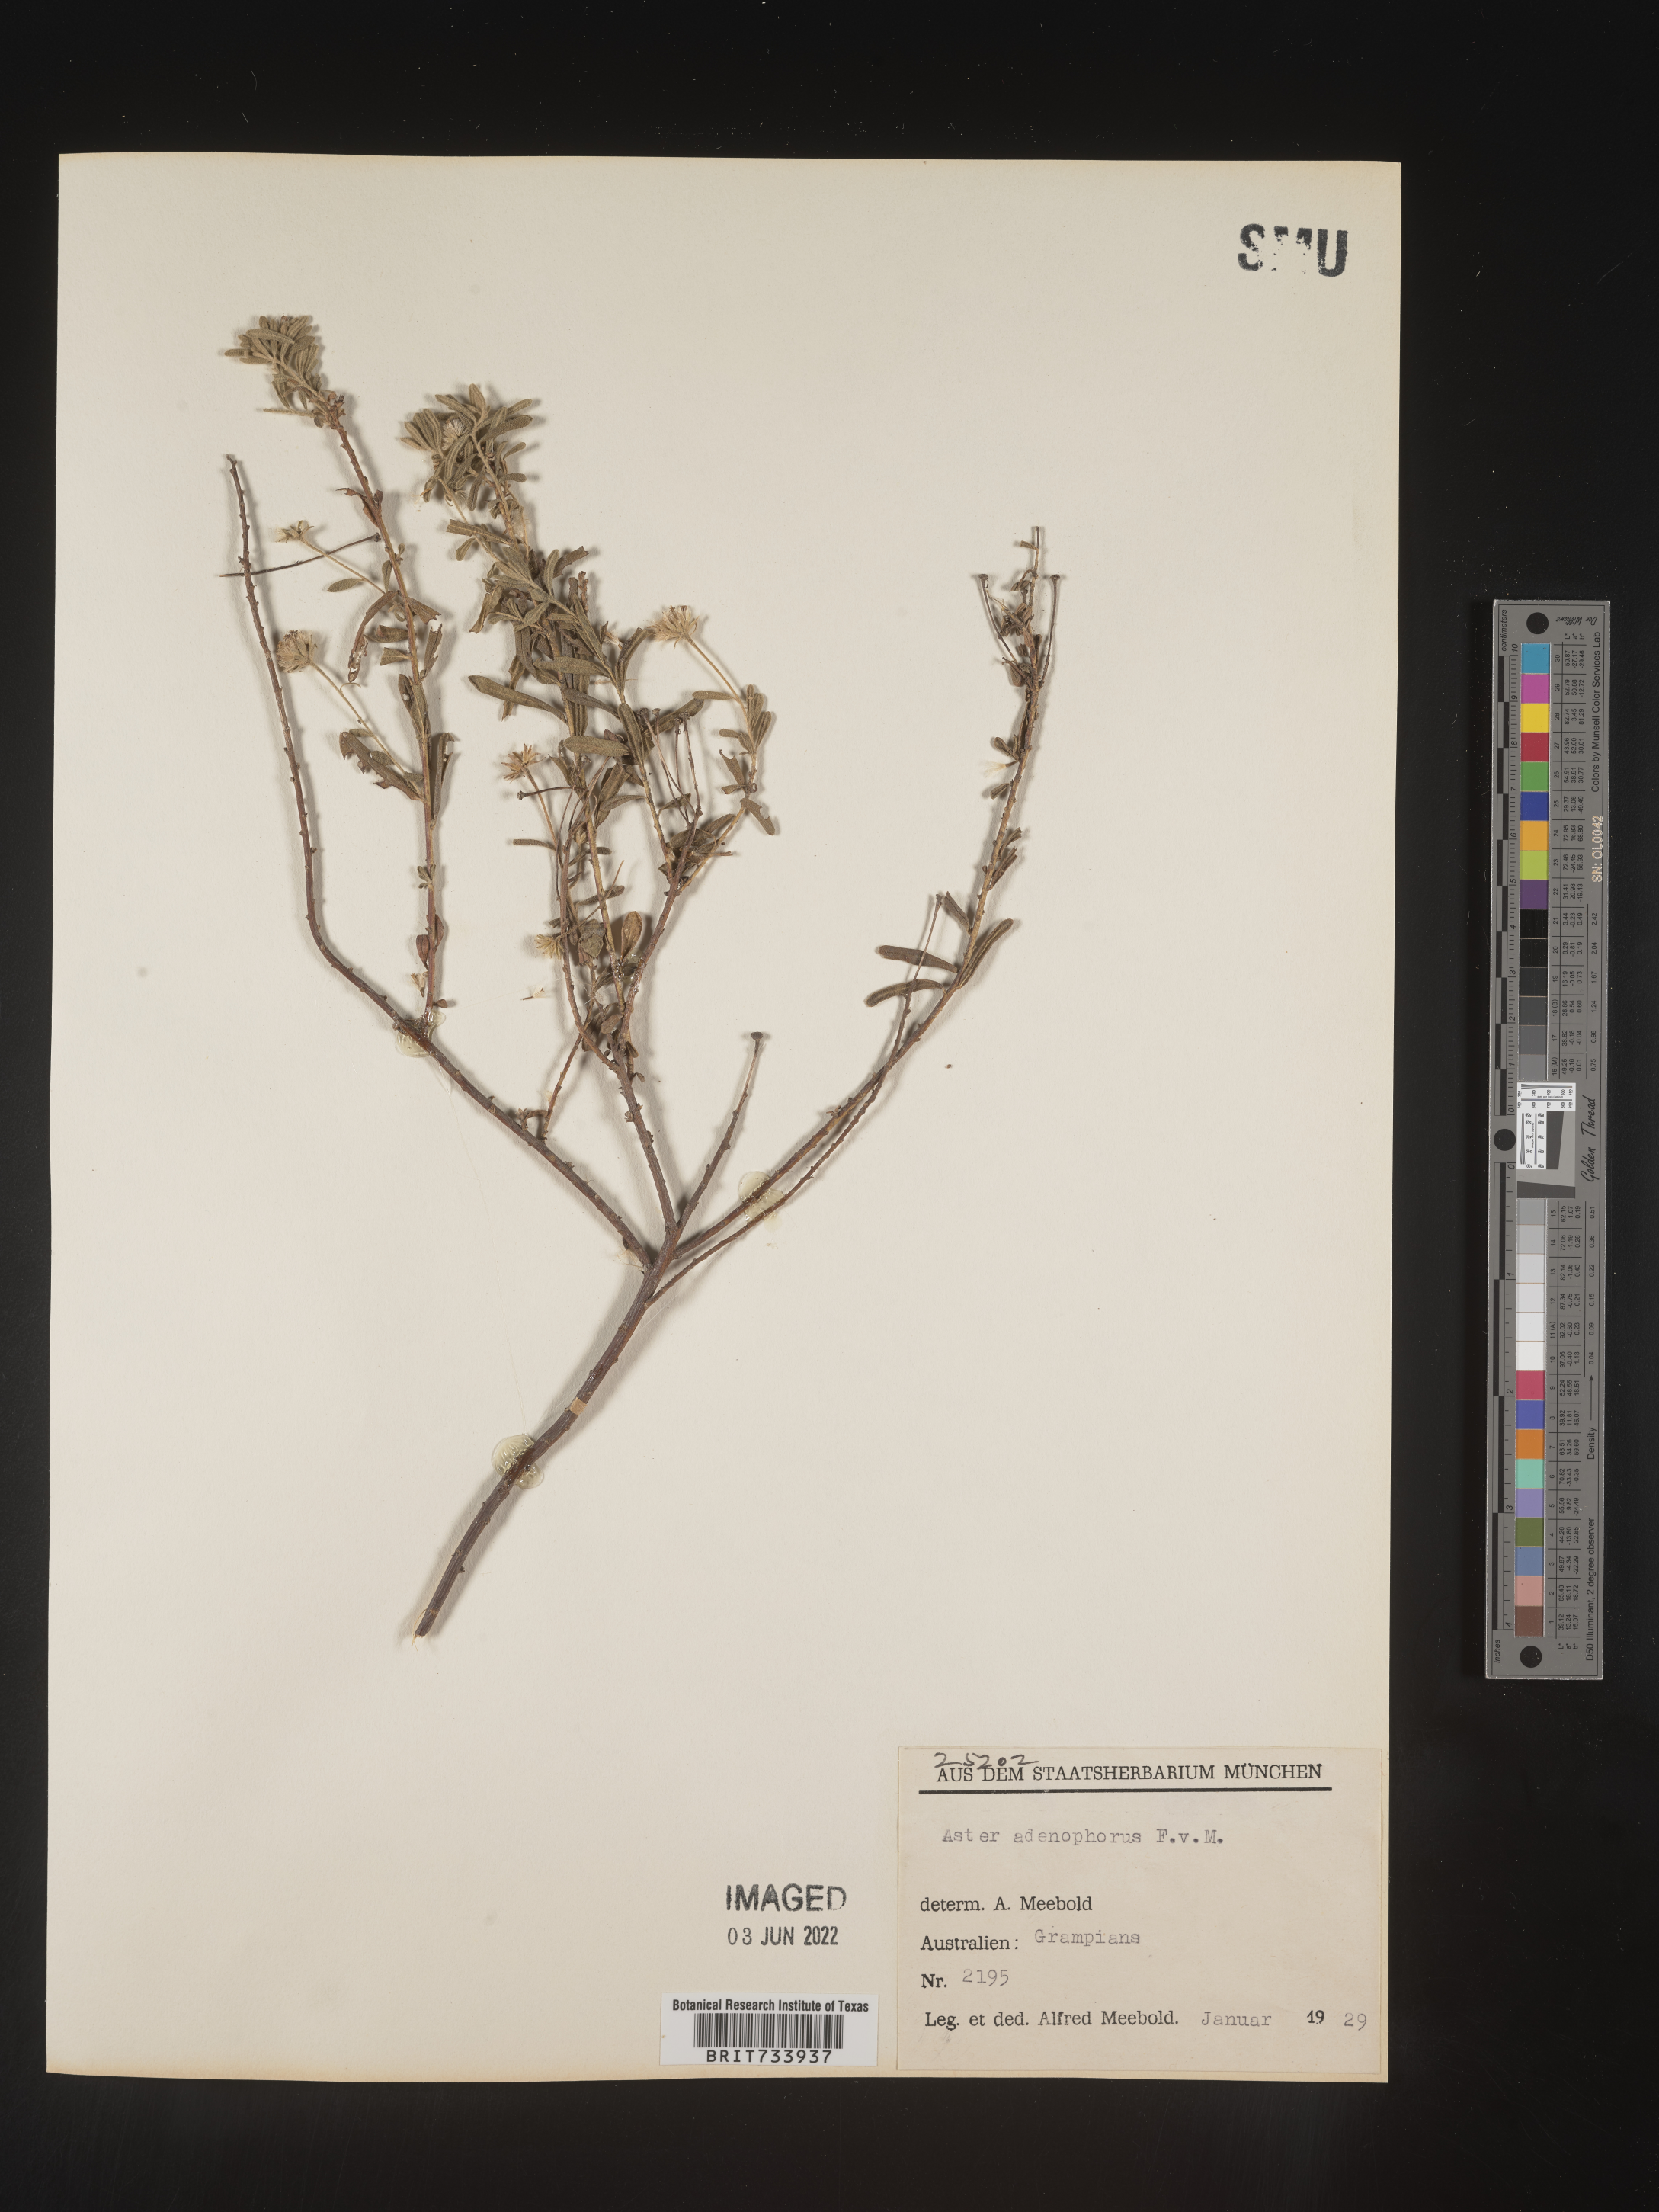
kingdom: Plantae
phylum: Tracheophyta
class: Magnoliopsida
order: Asterales
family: Asteraceae
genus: Olearia
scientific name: Olearia
